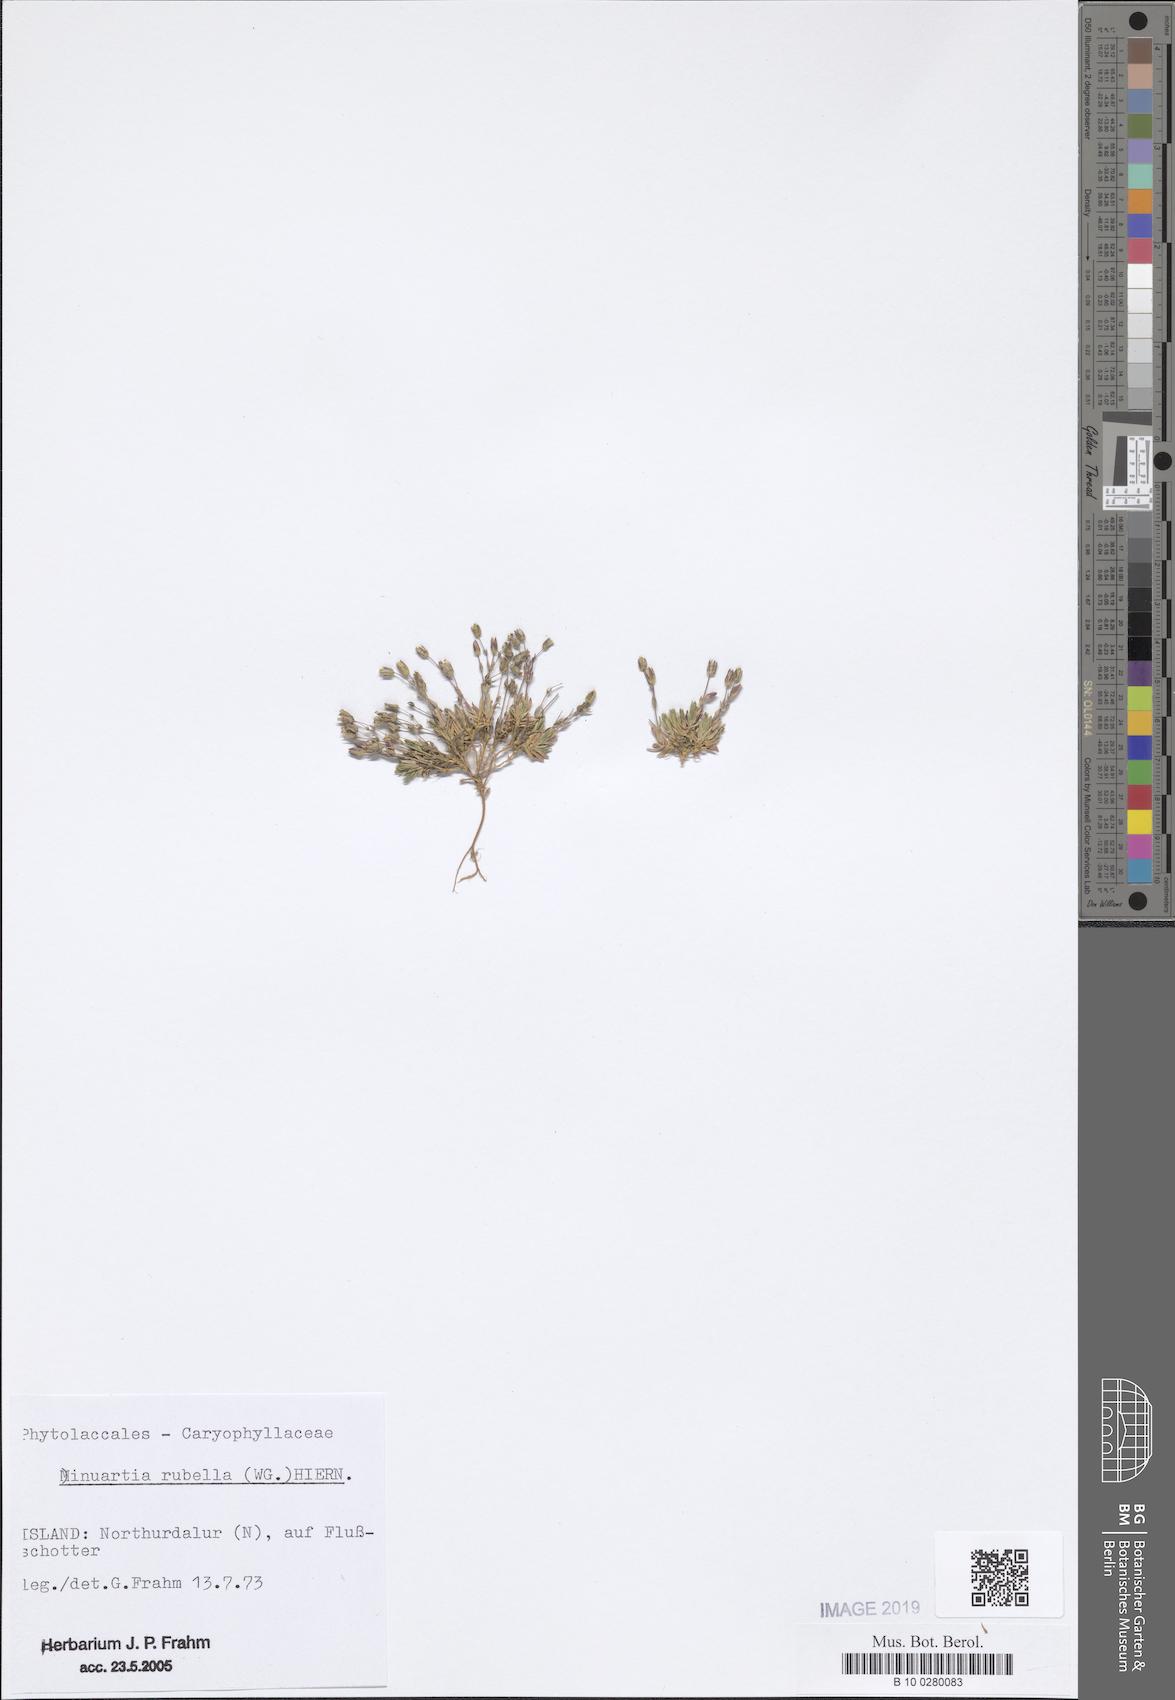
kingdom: Plantae
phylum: Tracheophyta
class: Magnoliopsida
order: Caryophyllales
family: Caryophyllaceae
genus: Sabulina
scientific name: Sabulina rubella
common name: Beautiful sandwort
